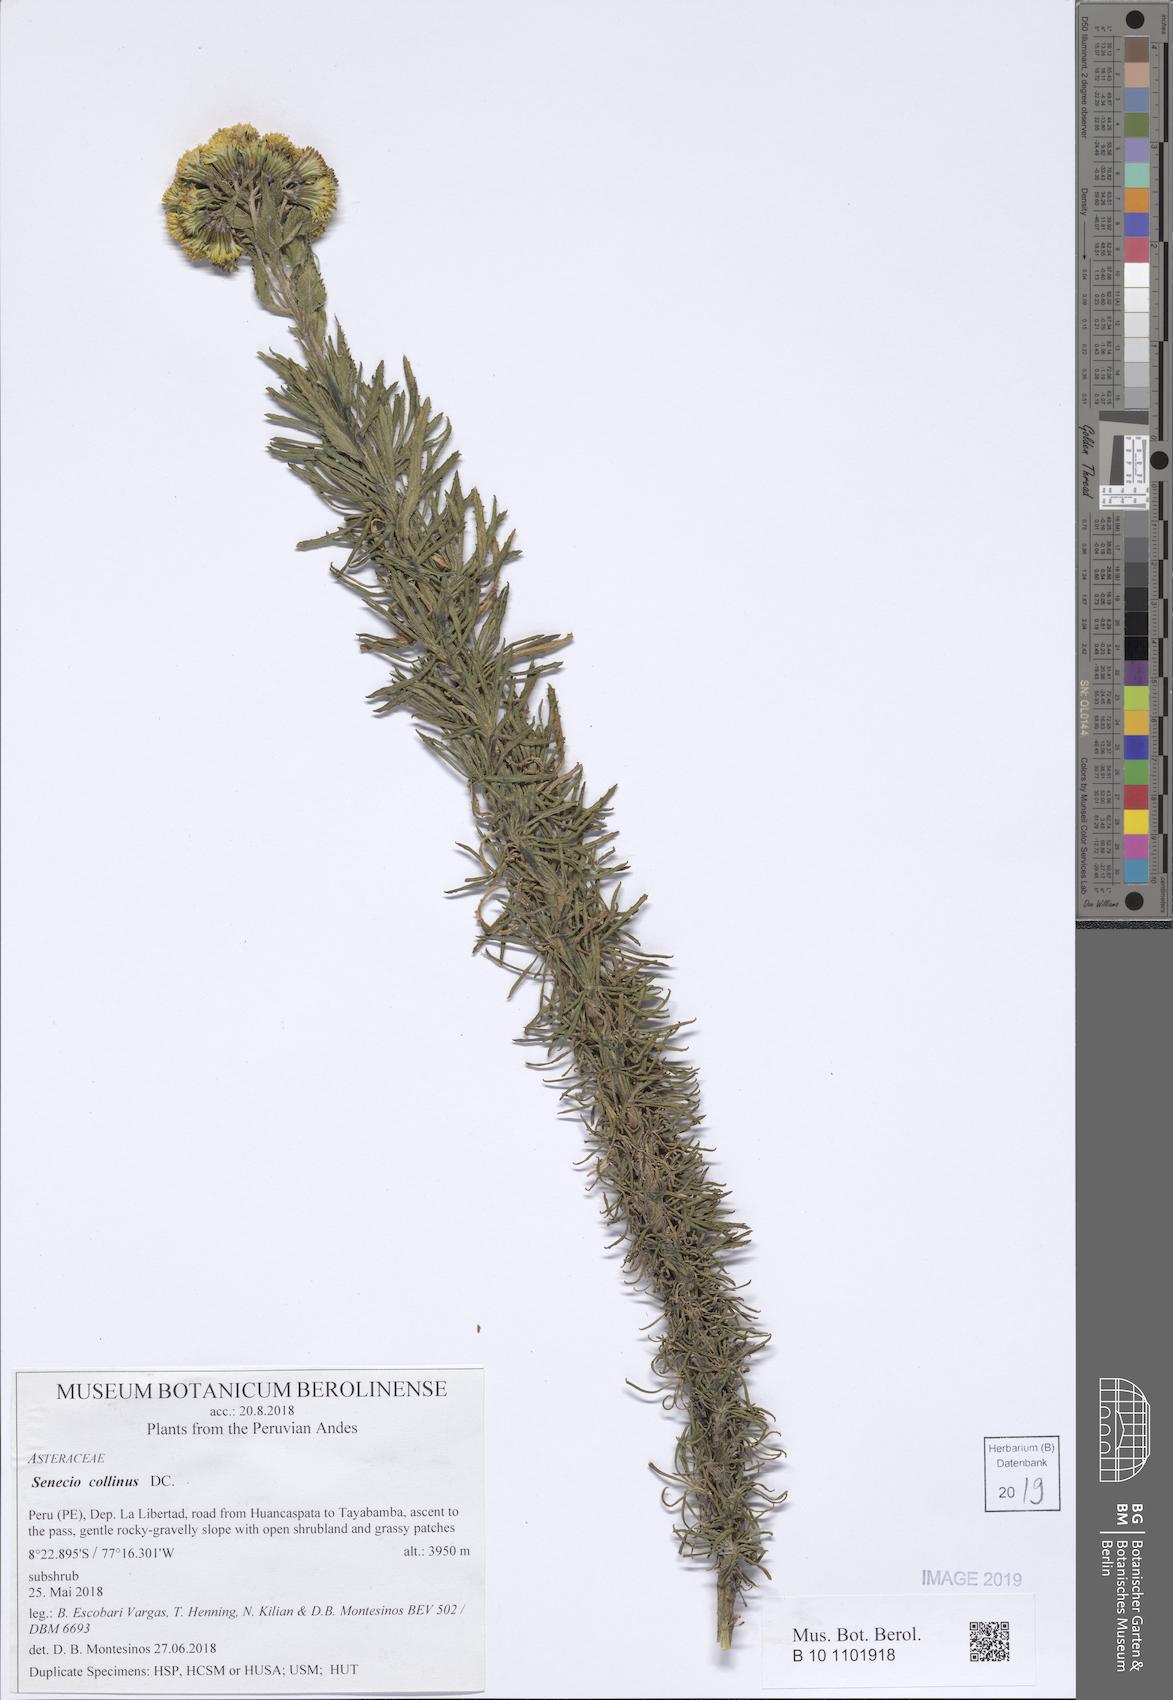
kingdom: Plantae
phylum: Tracheophyta
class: Magnoliopsida
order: Asterales
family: Asteraceae
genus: Senecio
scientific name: Senecio collinus
